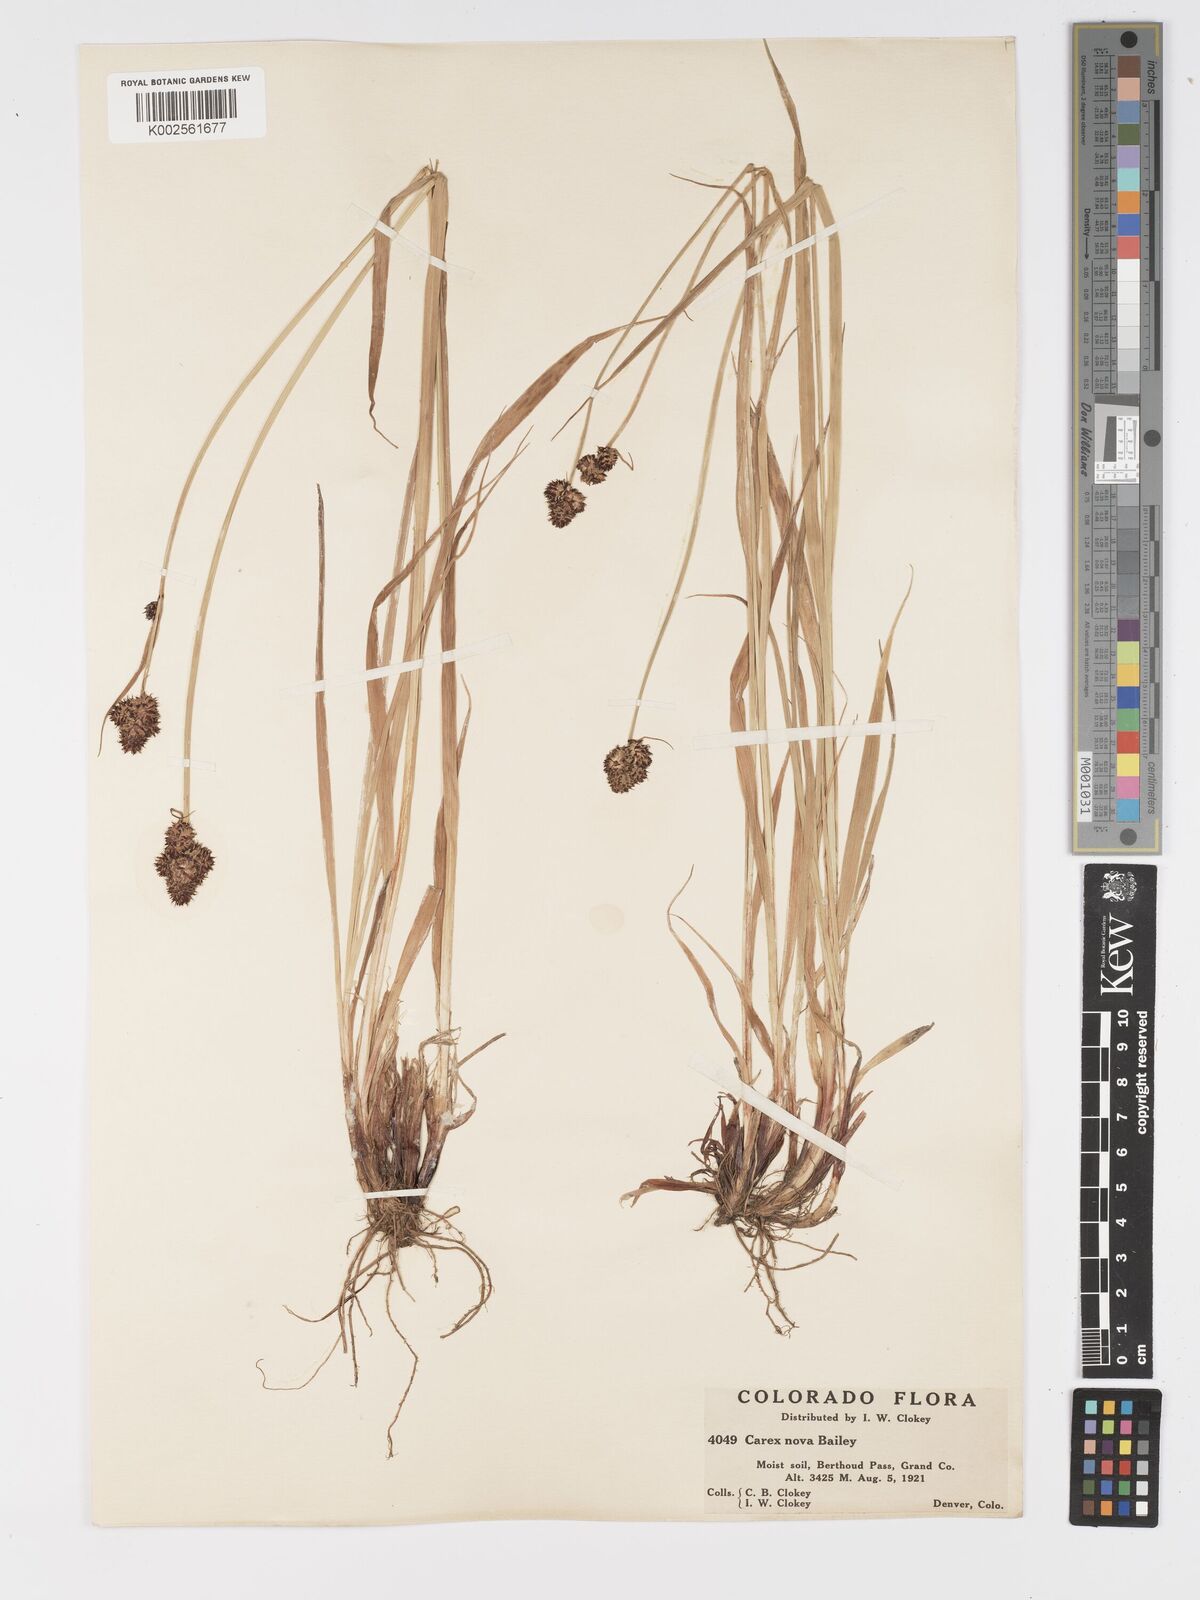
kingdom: Plantae
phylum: Tracheophyta
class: Liliopsida
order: Poales
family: Cyperaceae
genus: Carex
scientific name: Carex nova
